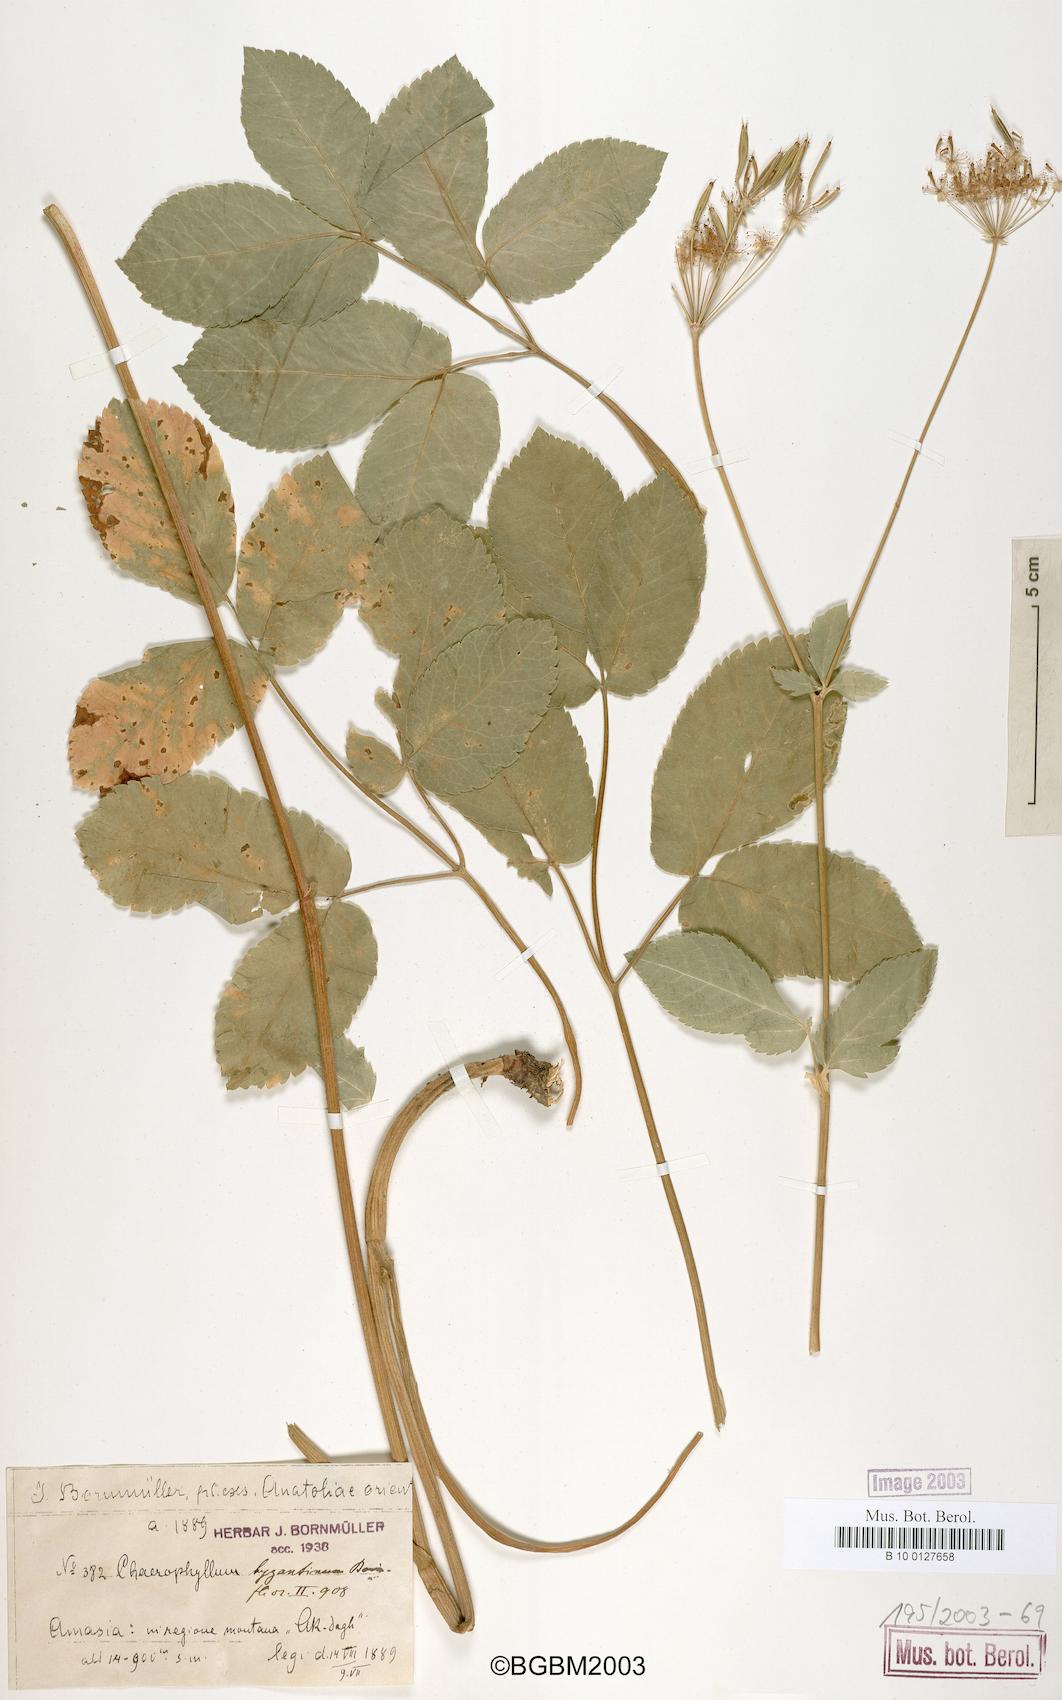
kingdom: Plantae
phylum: Tracheophyta
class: Magnoliopsida
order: Apiales
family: Apiaceae
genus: Chaerophyllum
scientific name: Chaerophyllum byzantinum
